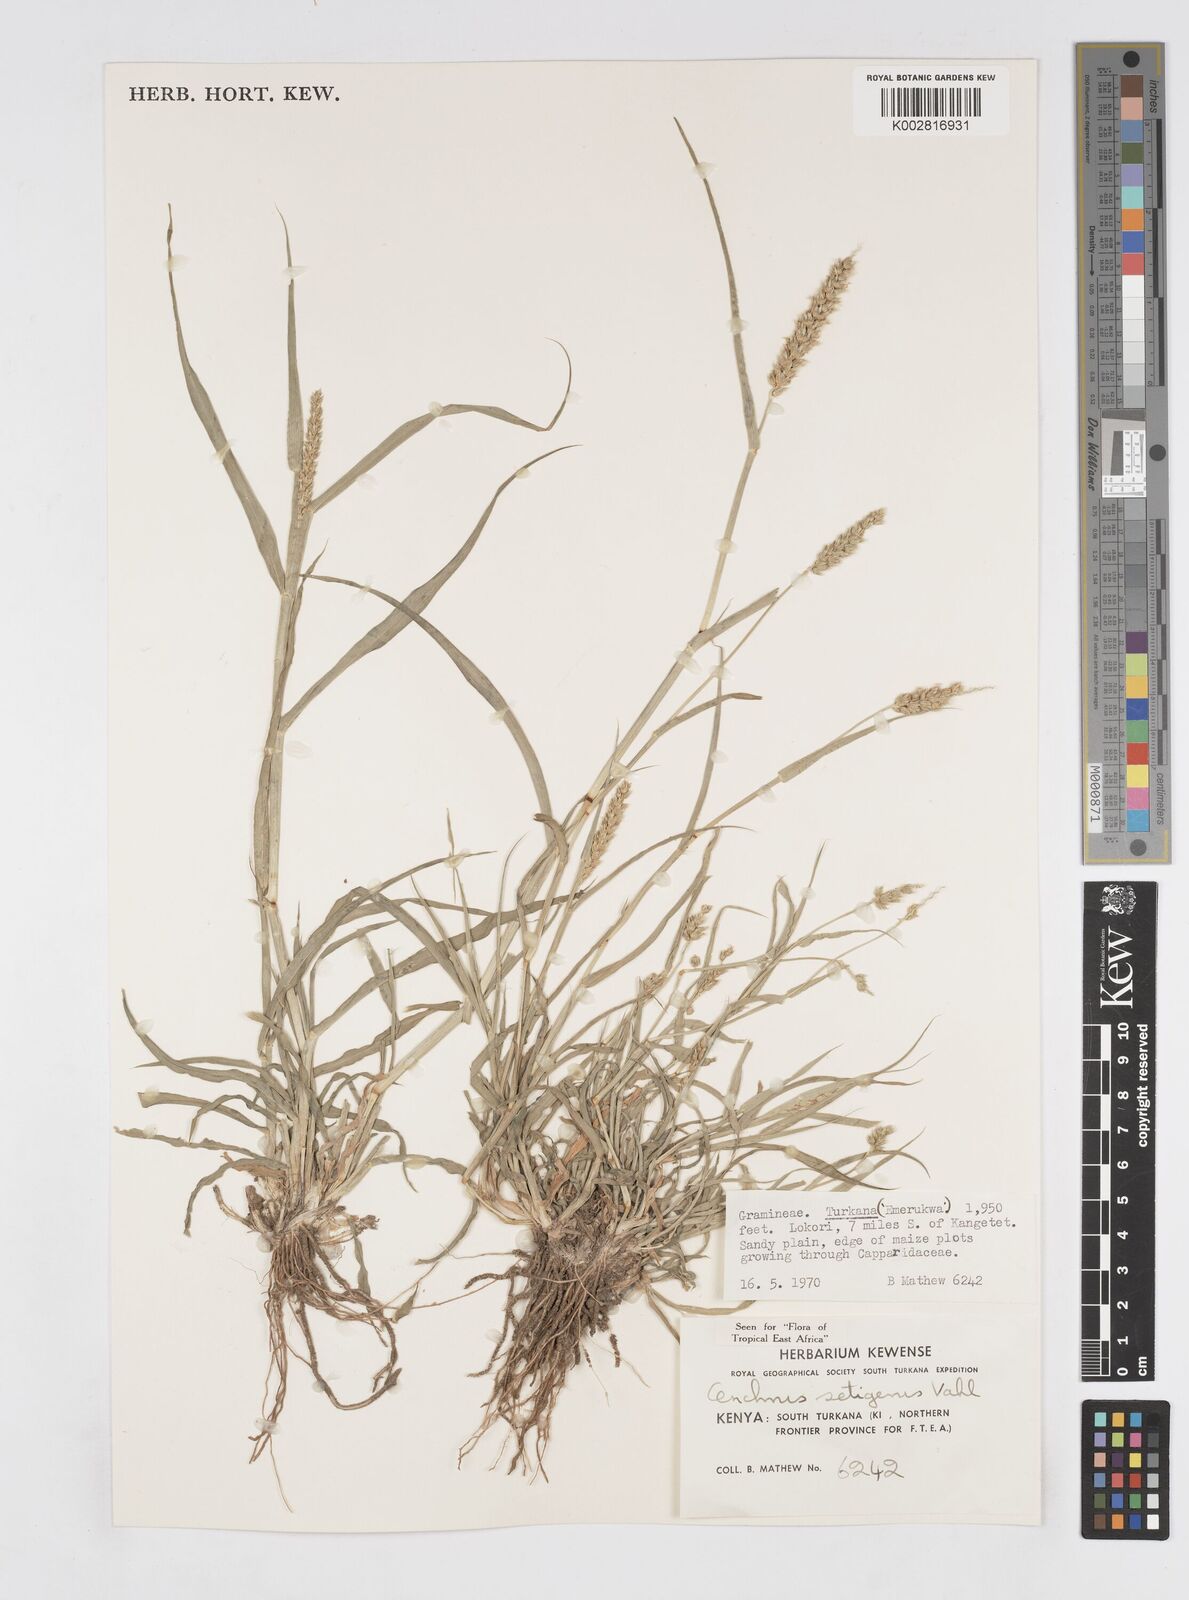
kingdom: Plantae
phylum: Tracheophyta
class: Liliopsida
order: Poales
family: Poaceae
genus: Cenchrus
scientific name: Cenchrus setigerus
